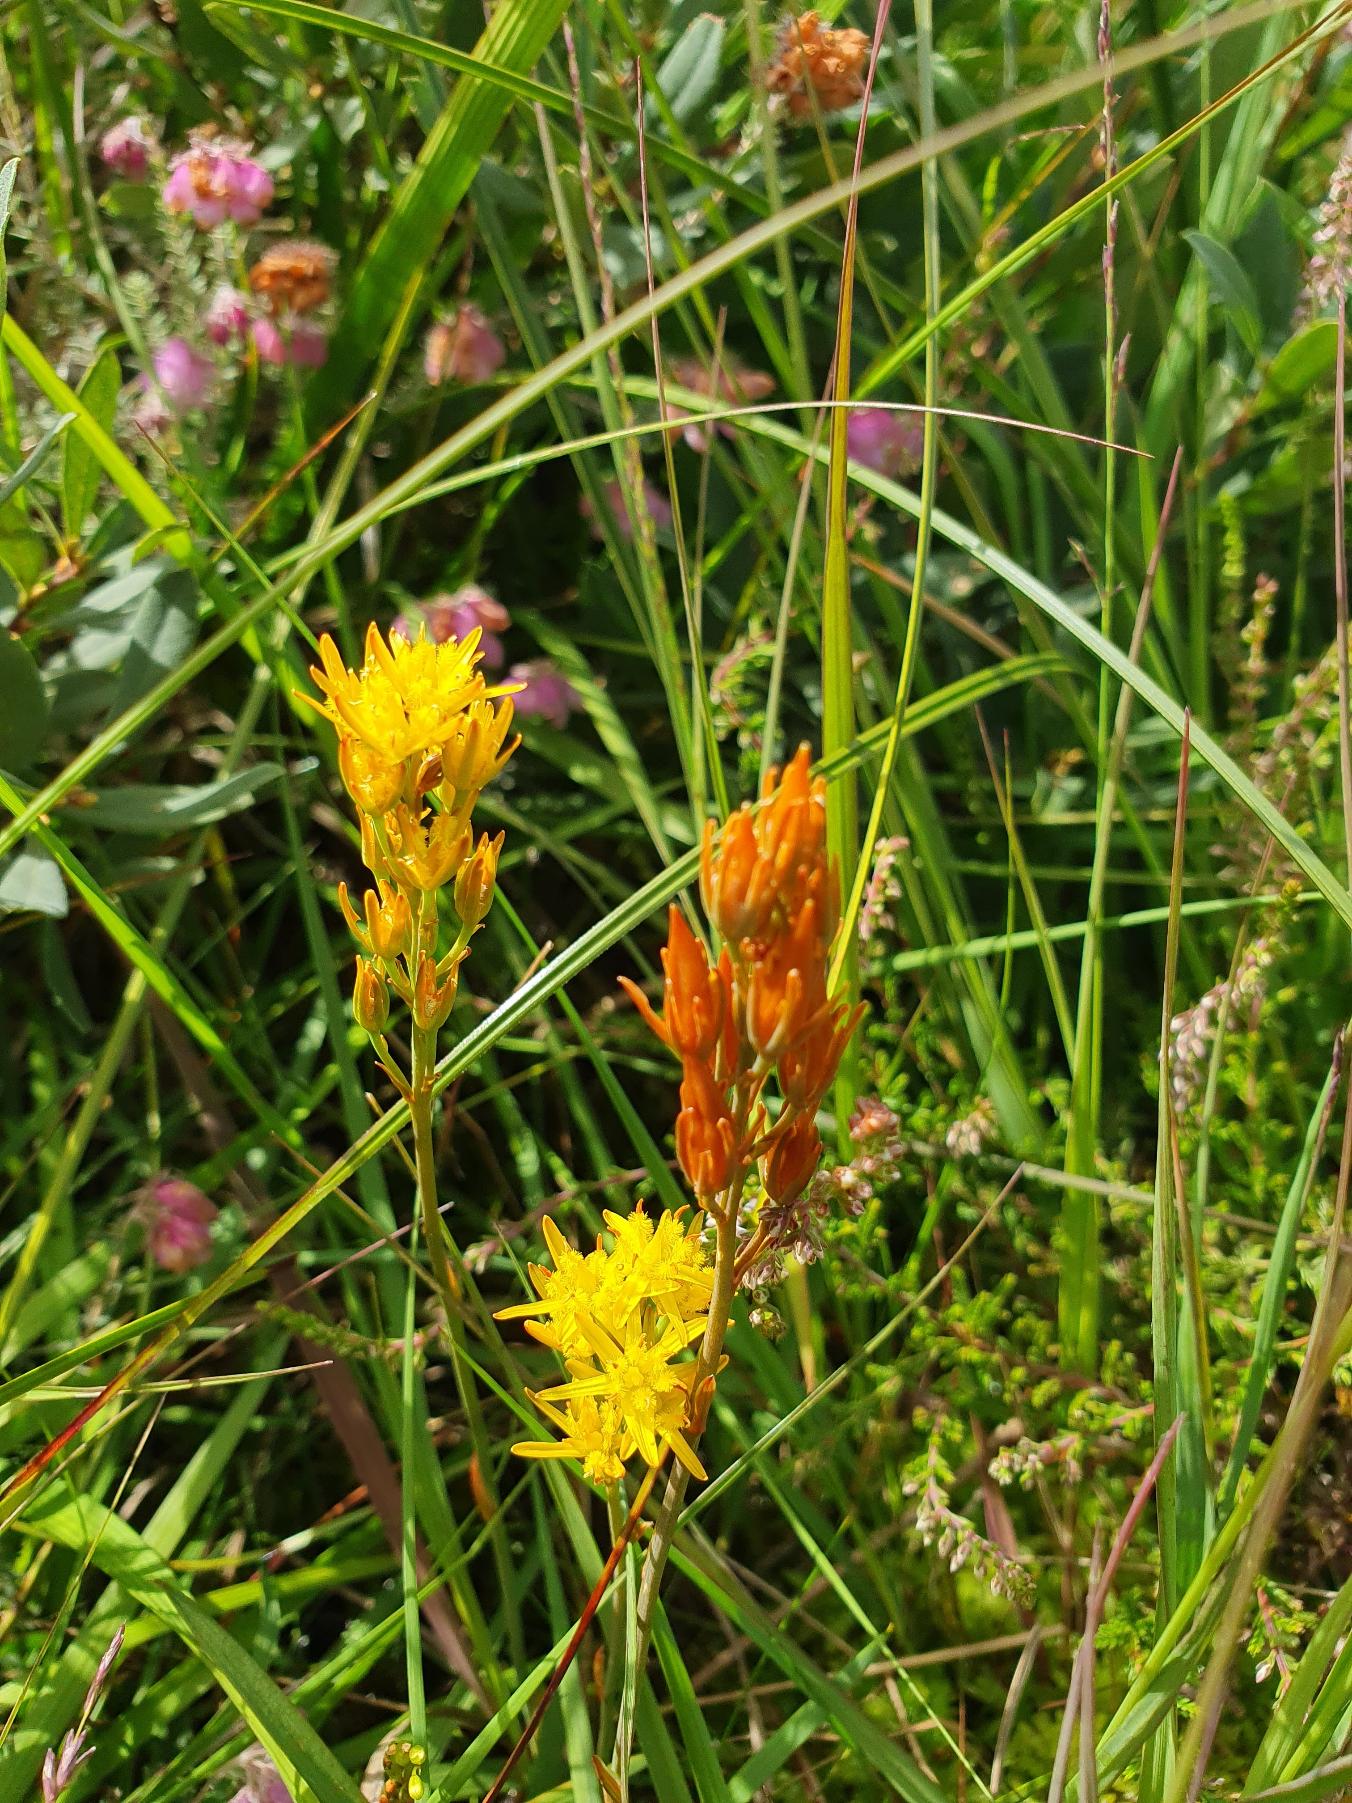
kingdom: Plantae
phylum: Tracheophyta
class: Liliopsida
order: Dioscoreales
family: Nartheciaceae
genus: Narthecium
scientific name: Narthecium ossifragum
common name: Benbræk
